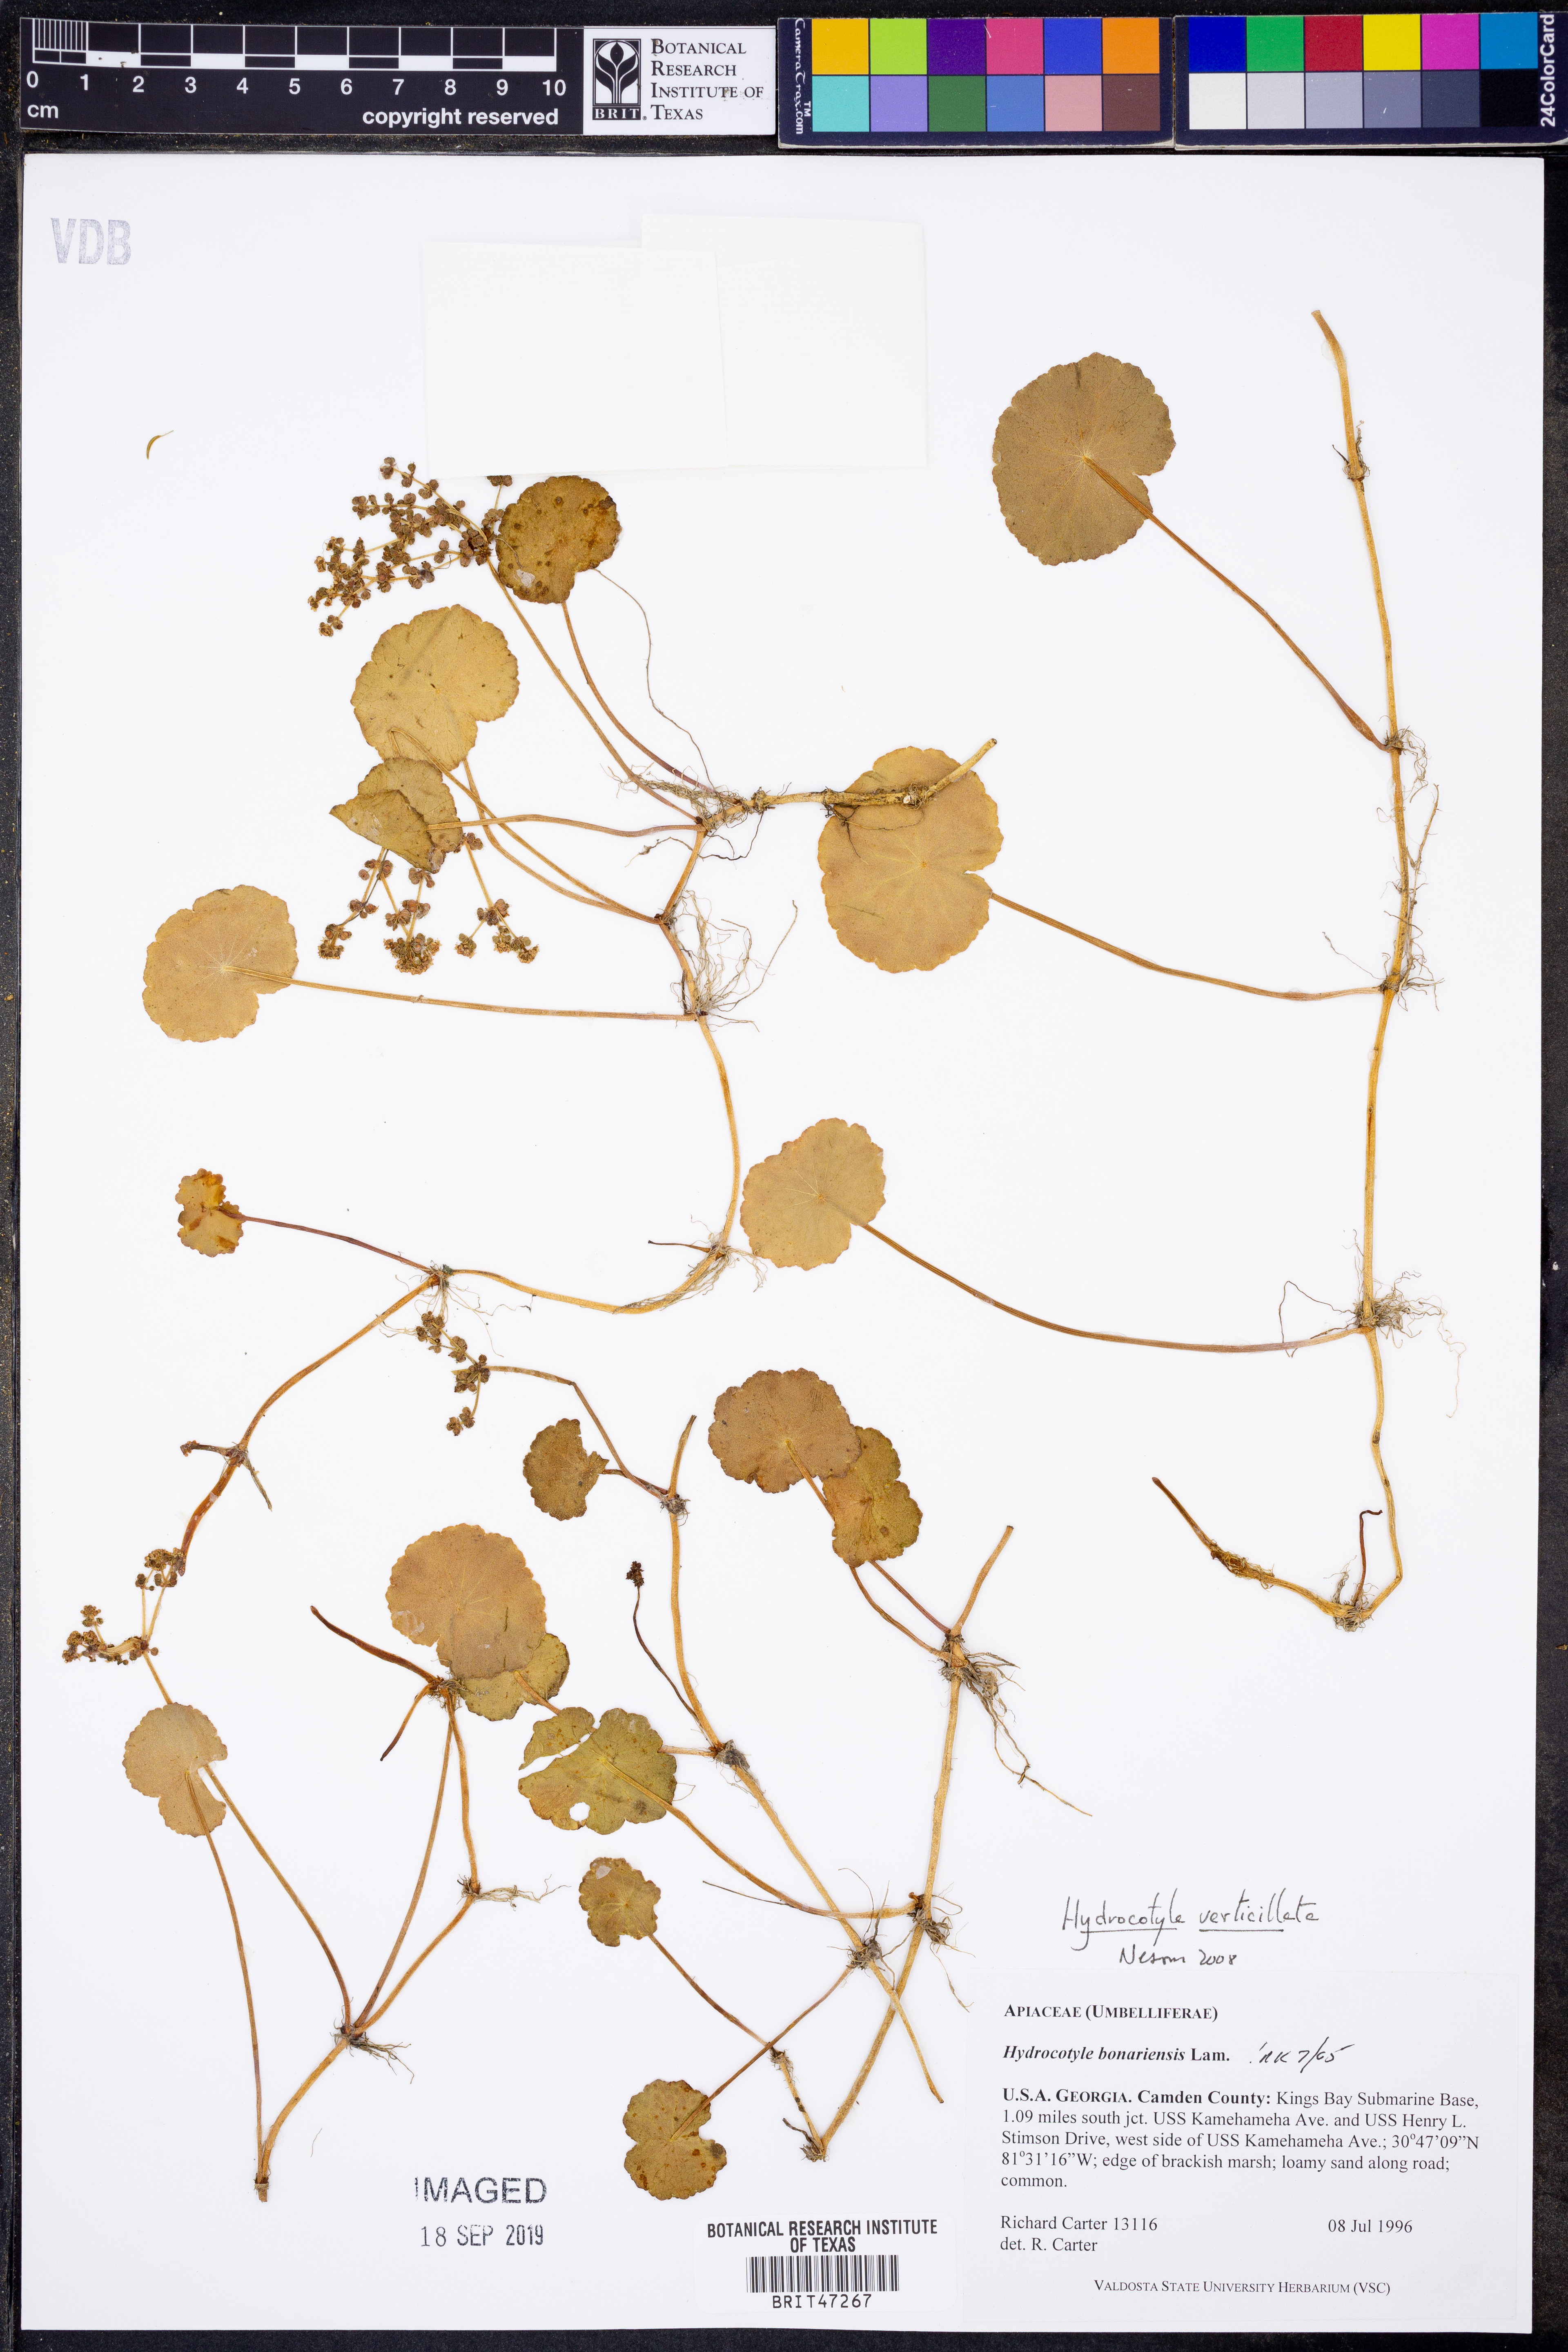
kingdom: Plantae
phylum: Tracheophyta
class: Magnoliopsida
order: Apiales
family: Araliaceae
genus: Hydrocotyle
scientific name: Hydrocotyle verticillata
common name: Whorled marshpennywort
